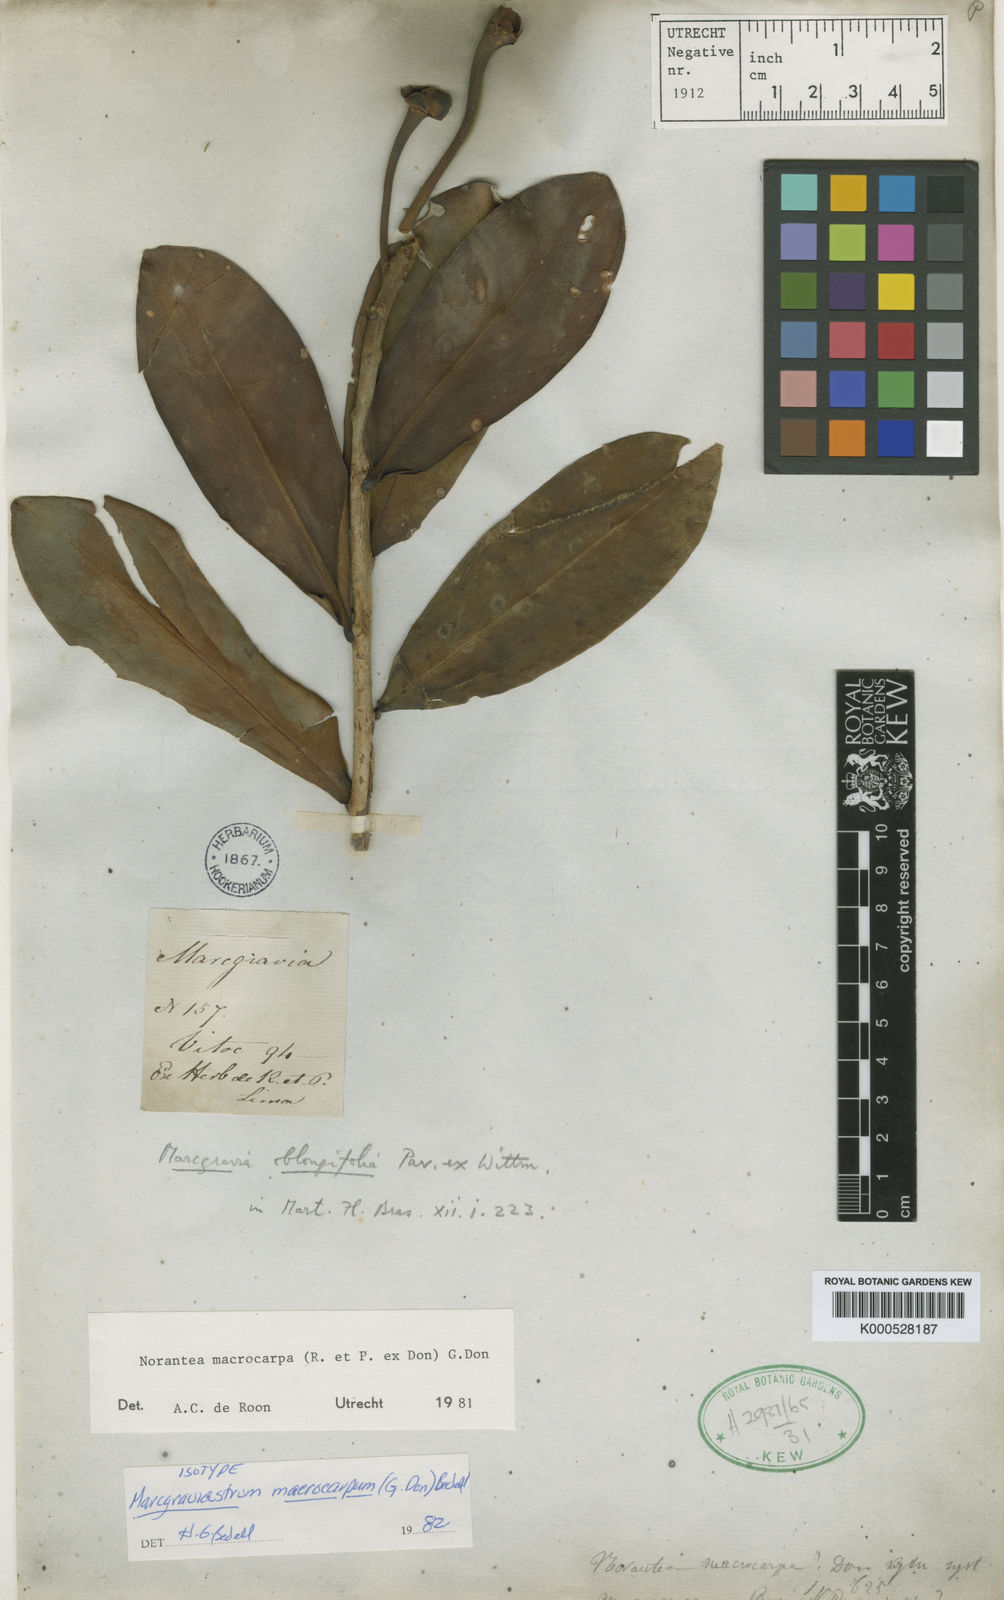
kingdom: Plantae
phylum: Tracheophyta
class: Magnoliopsida
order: Ericales
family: Marcgraviaceae
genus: Marcgraviastrum
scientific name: Marcgraviastrum macrocarpum
